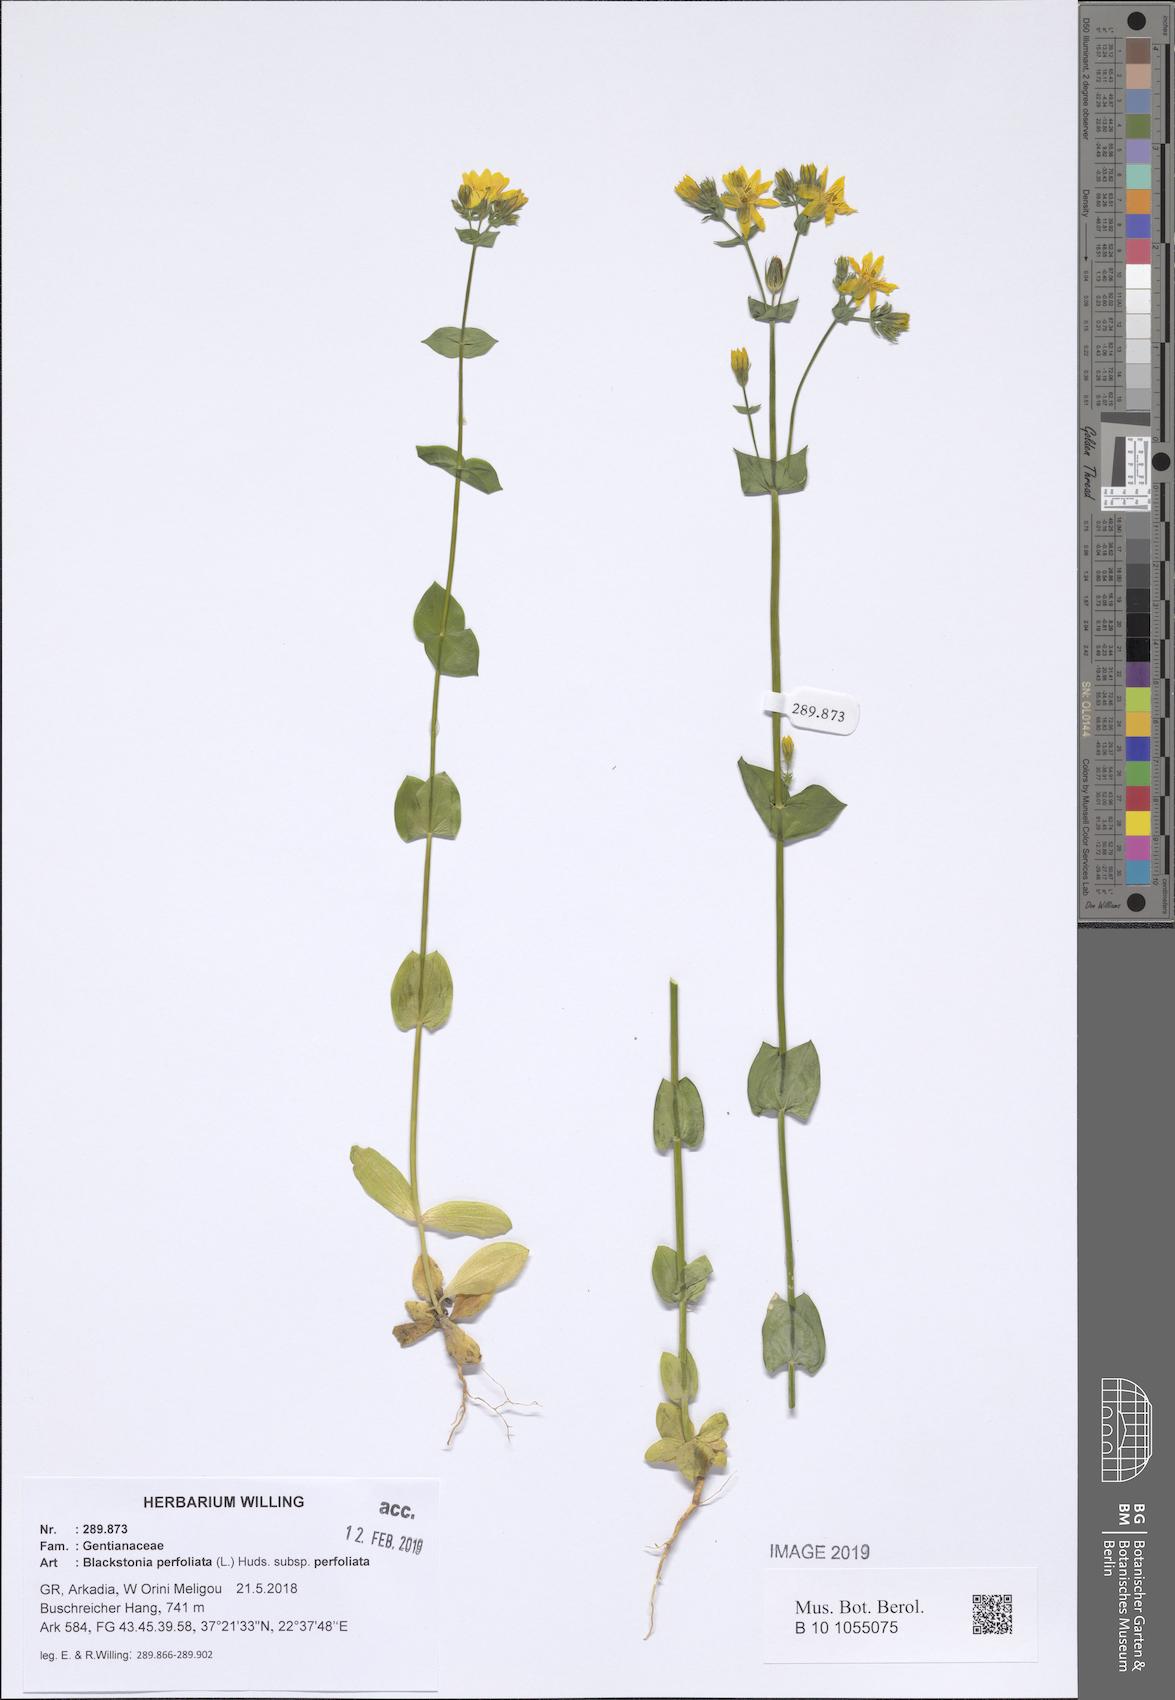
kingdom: Plantae
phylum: Tracheophyta
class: Magnoliopsida
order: Gentianales
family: Gentianaceae
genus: Blackstonia
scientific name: Blackstonia perfoliata
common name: Yellow-wort
